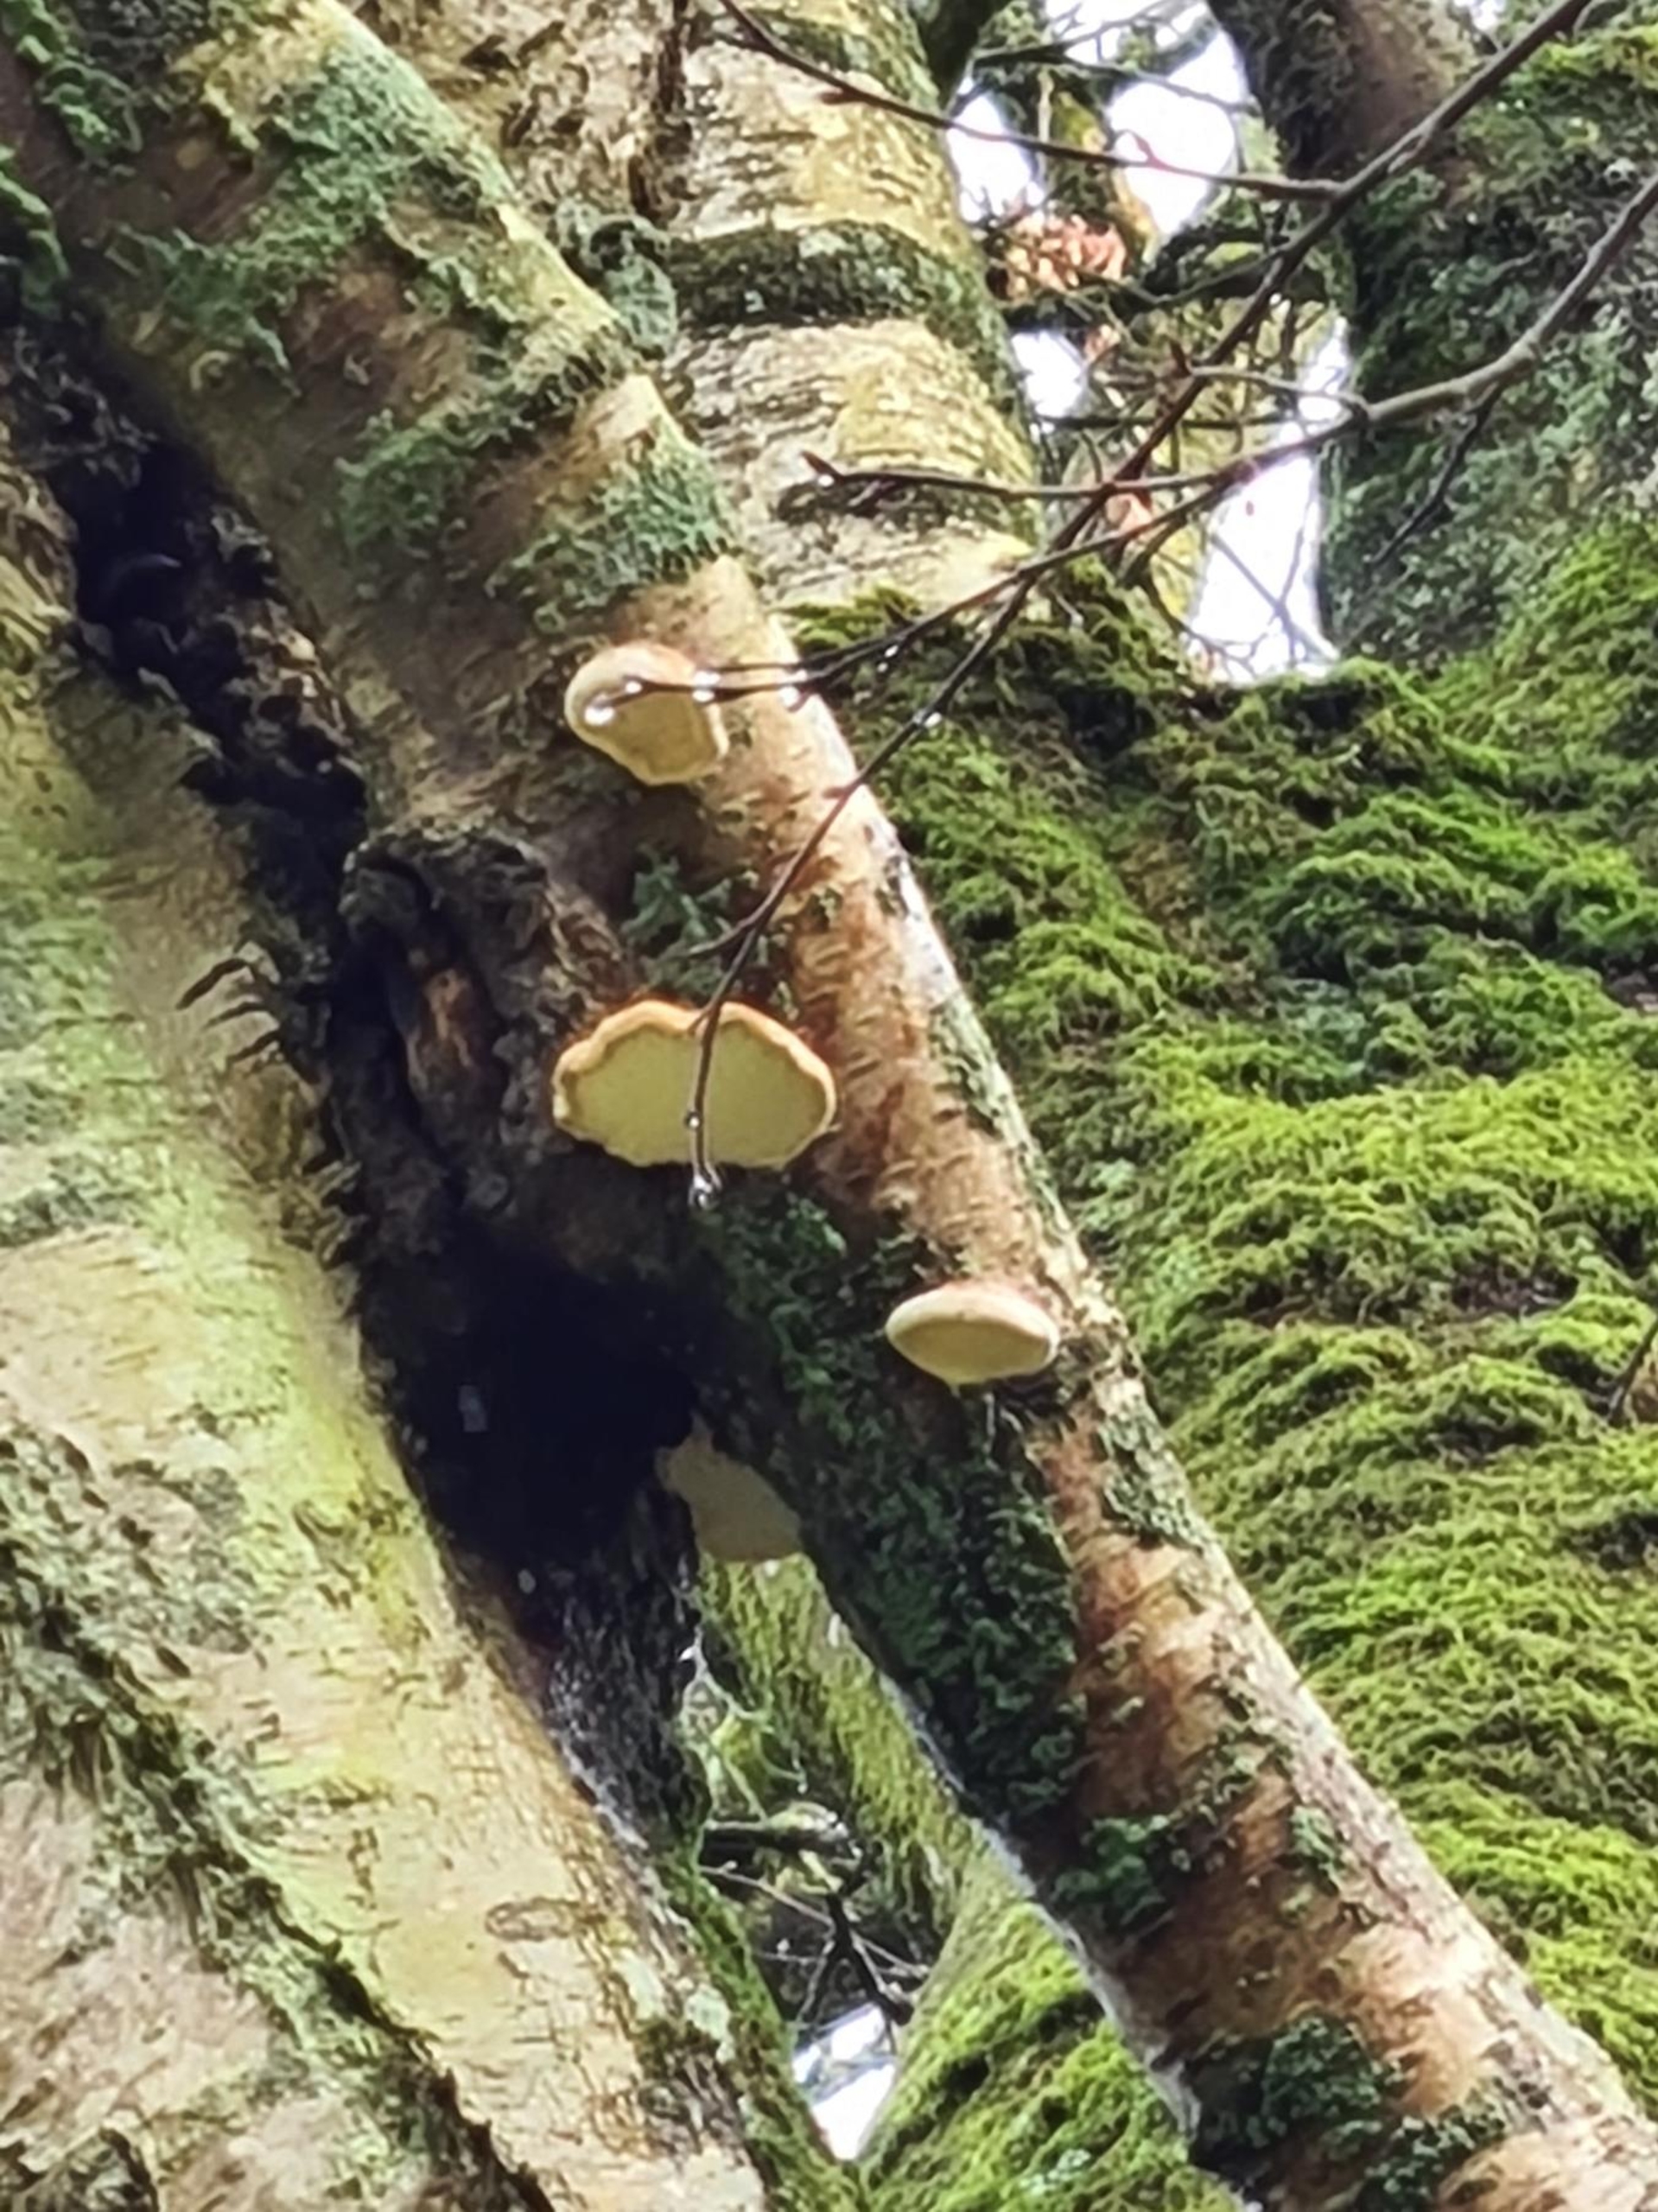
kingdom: Fungi
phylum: Basidiomycota
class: Agaricomycetes
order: Polyporales
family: Fomitopsidaceae
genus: Fomitopsis
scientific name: Fomitopsis betulina
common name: Birkeporesvamp
